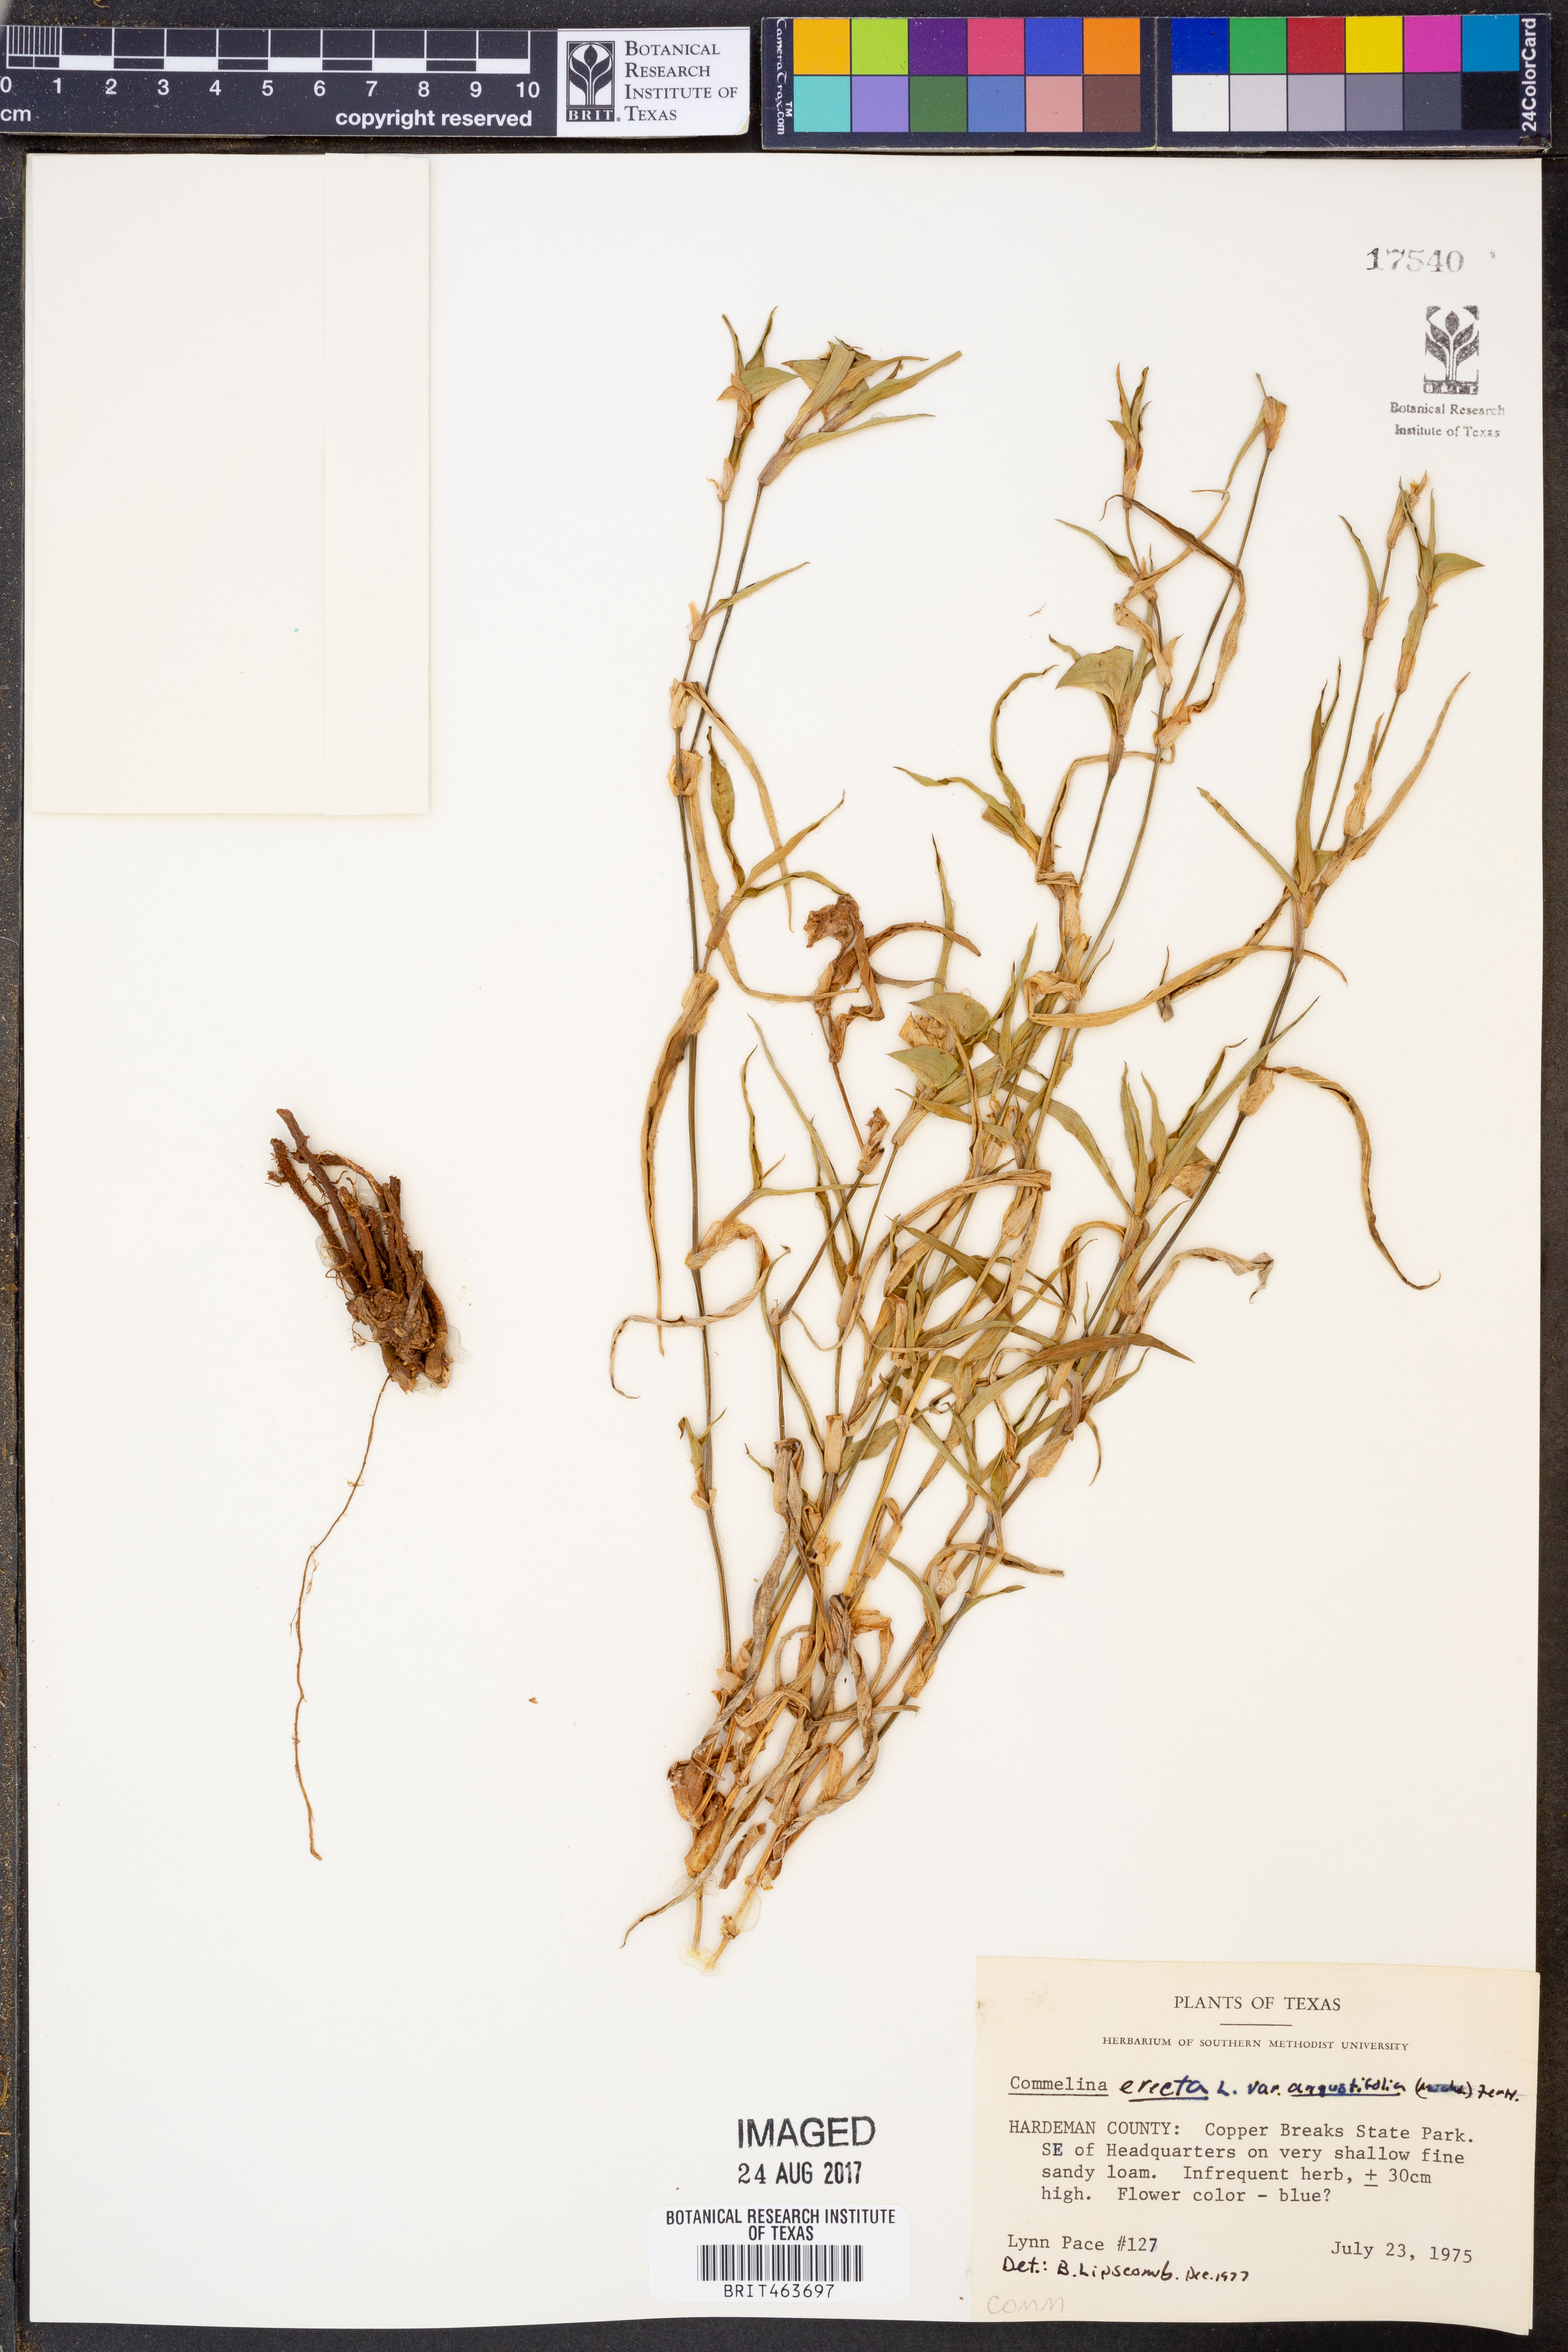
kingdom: Plantae
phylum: Tracheophyta
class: Liliopsida
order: Commelinales
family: Commelinaceae
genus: Commelina
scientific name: Commelina erecta
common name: Blousel blommetjie
